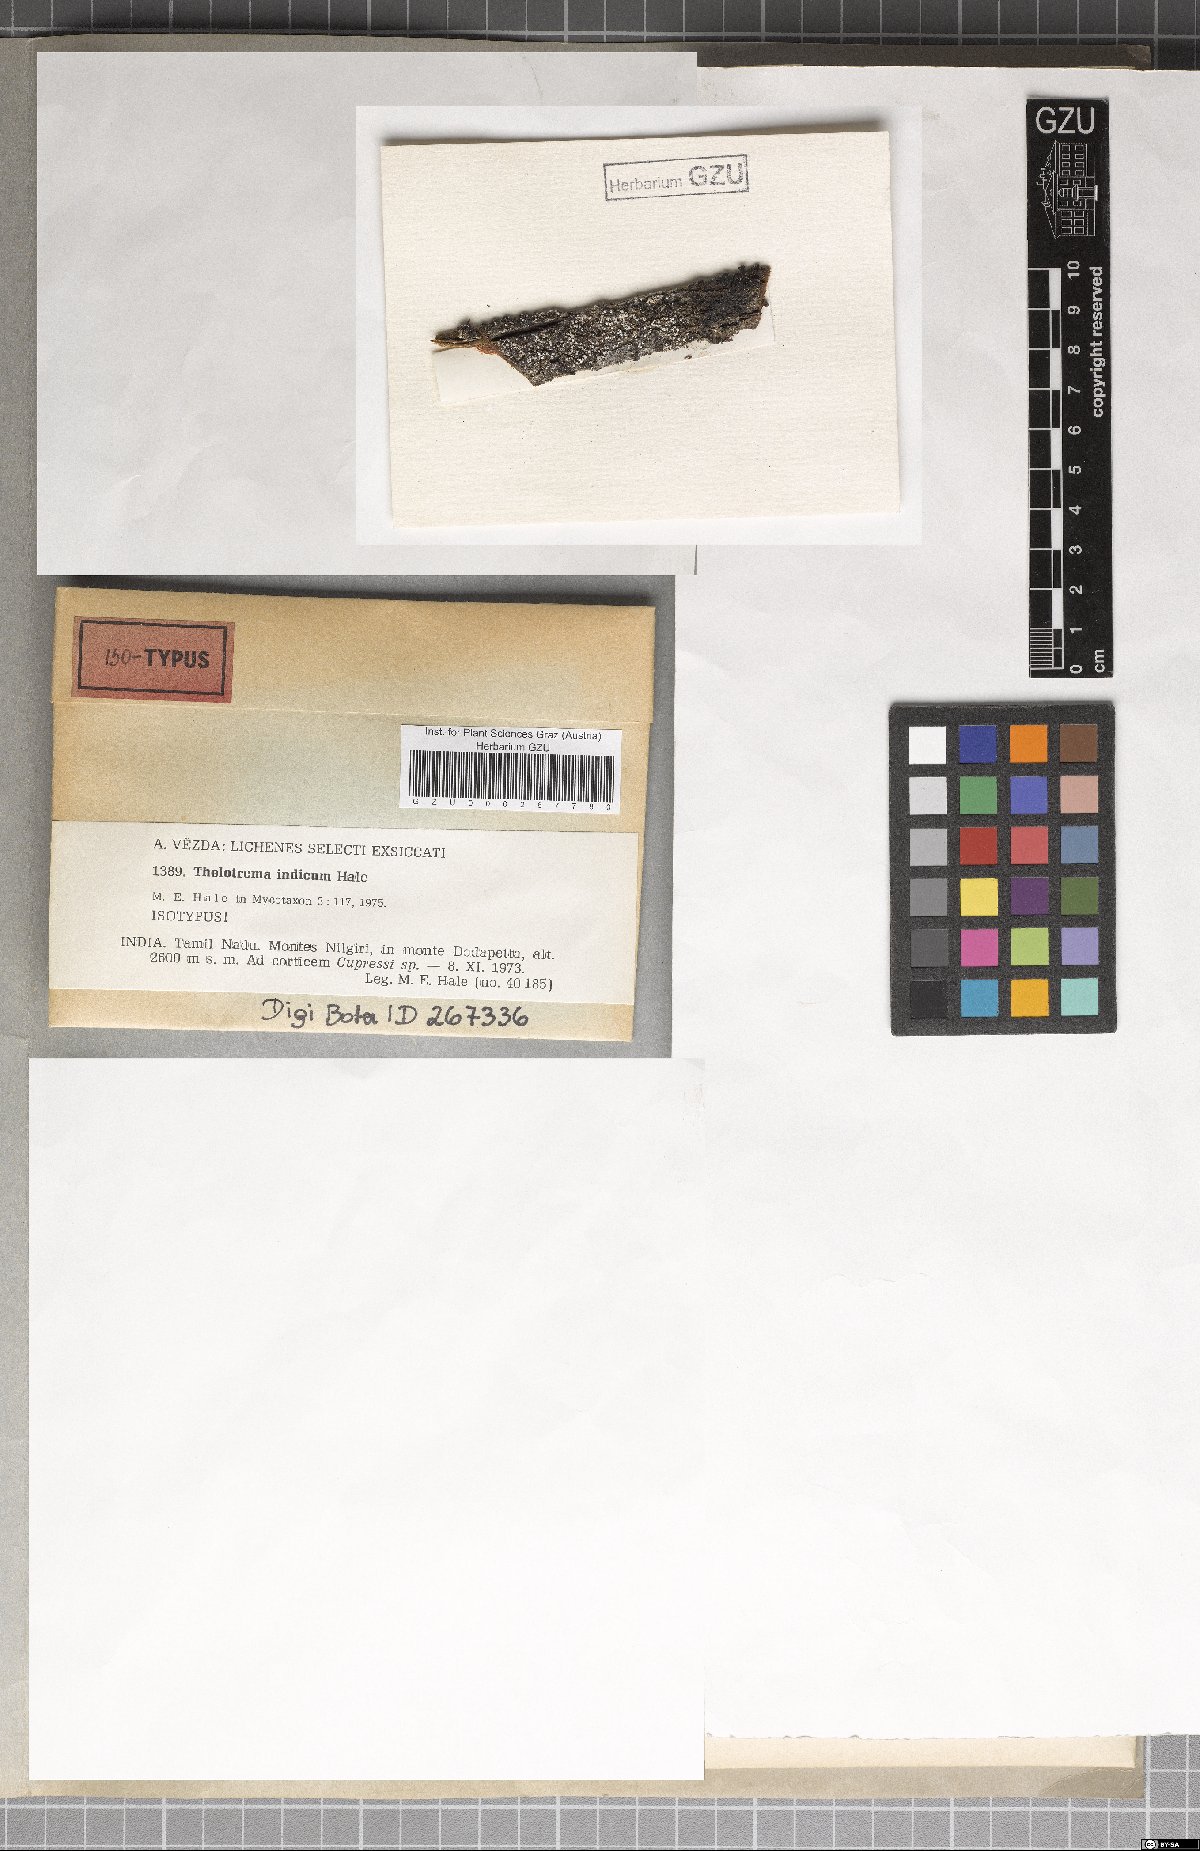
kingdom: Fungi
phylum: Ascomycota
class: Lecanoromycetes
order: Ostropales
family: Graphidaceae
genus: Thelotrema
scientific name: Thelotrema indicum
